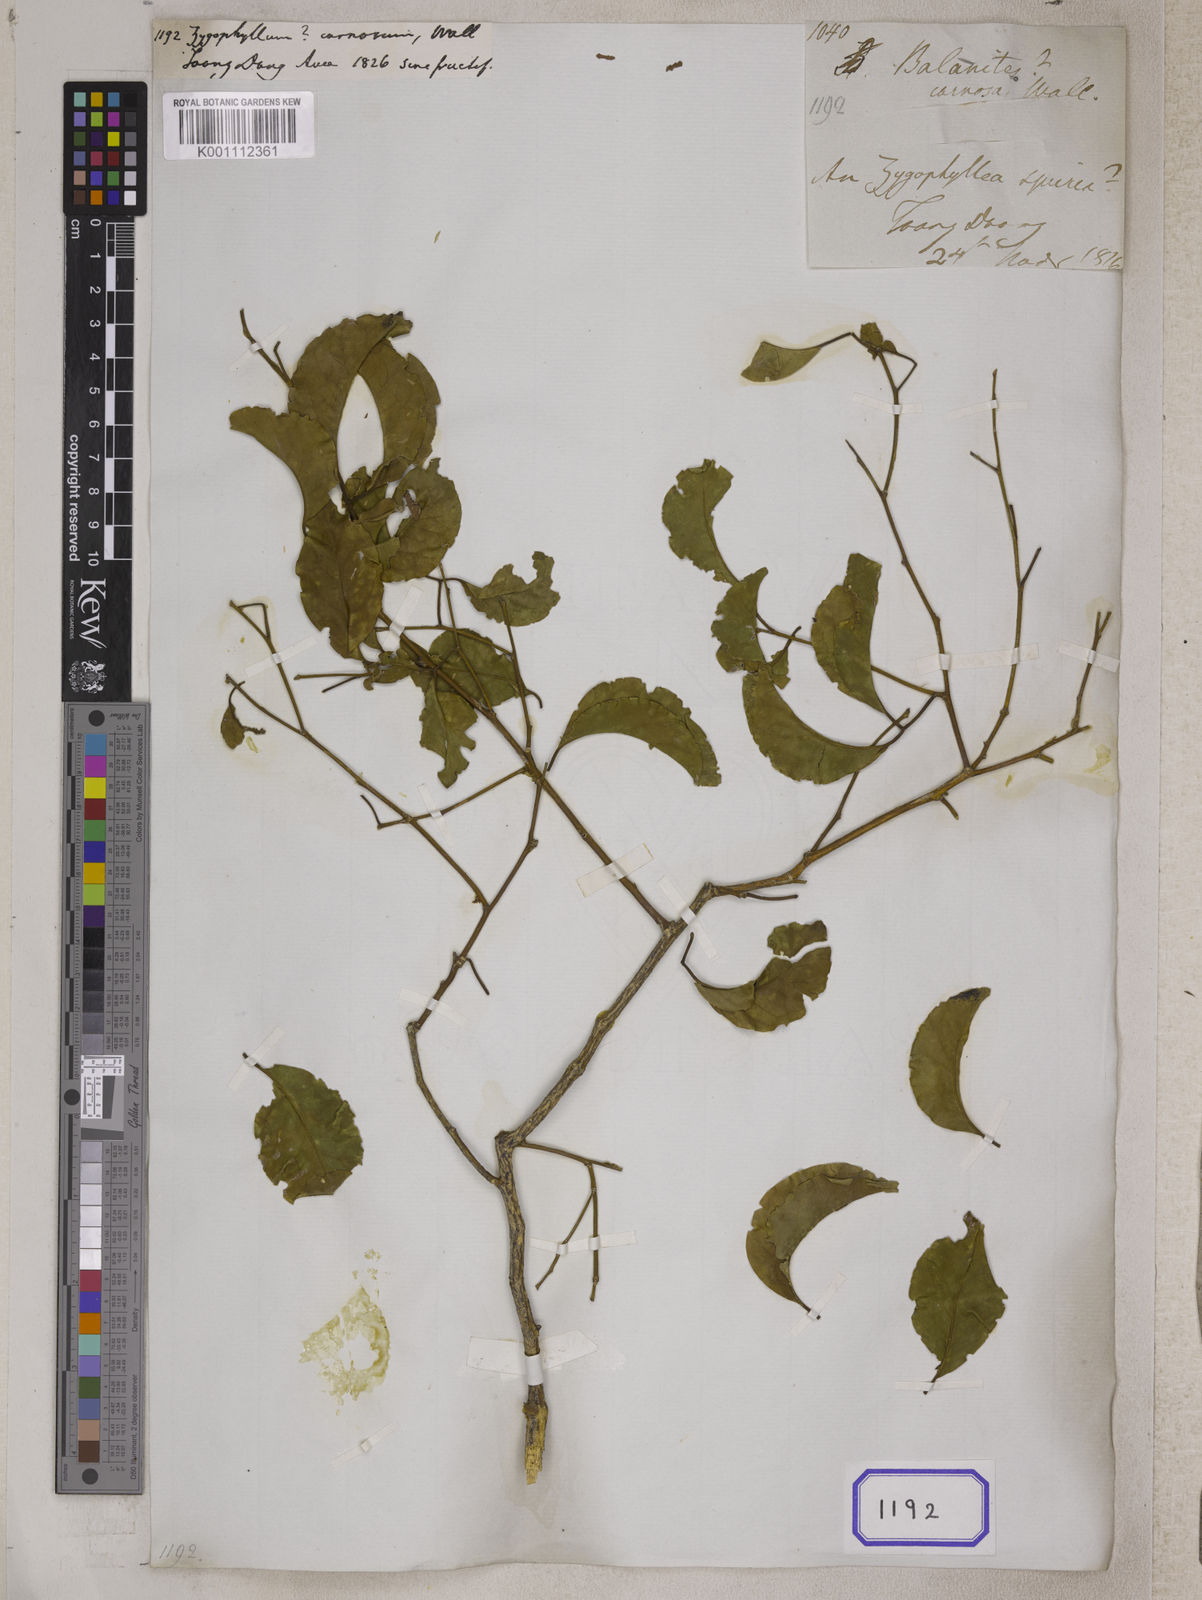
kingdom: Plantae
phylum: Tracheophyta
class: Magnoliopsida
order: Zygophyllales
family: Zygophyllaceae
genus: Zygophyllum
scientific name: Zygophyllum carnosum
